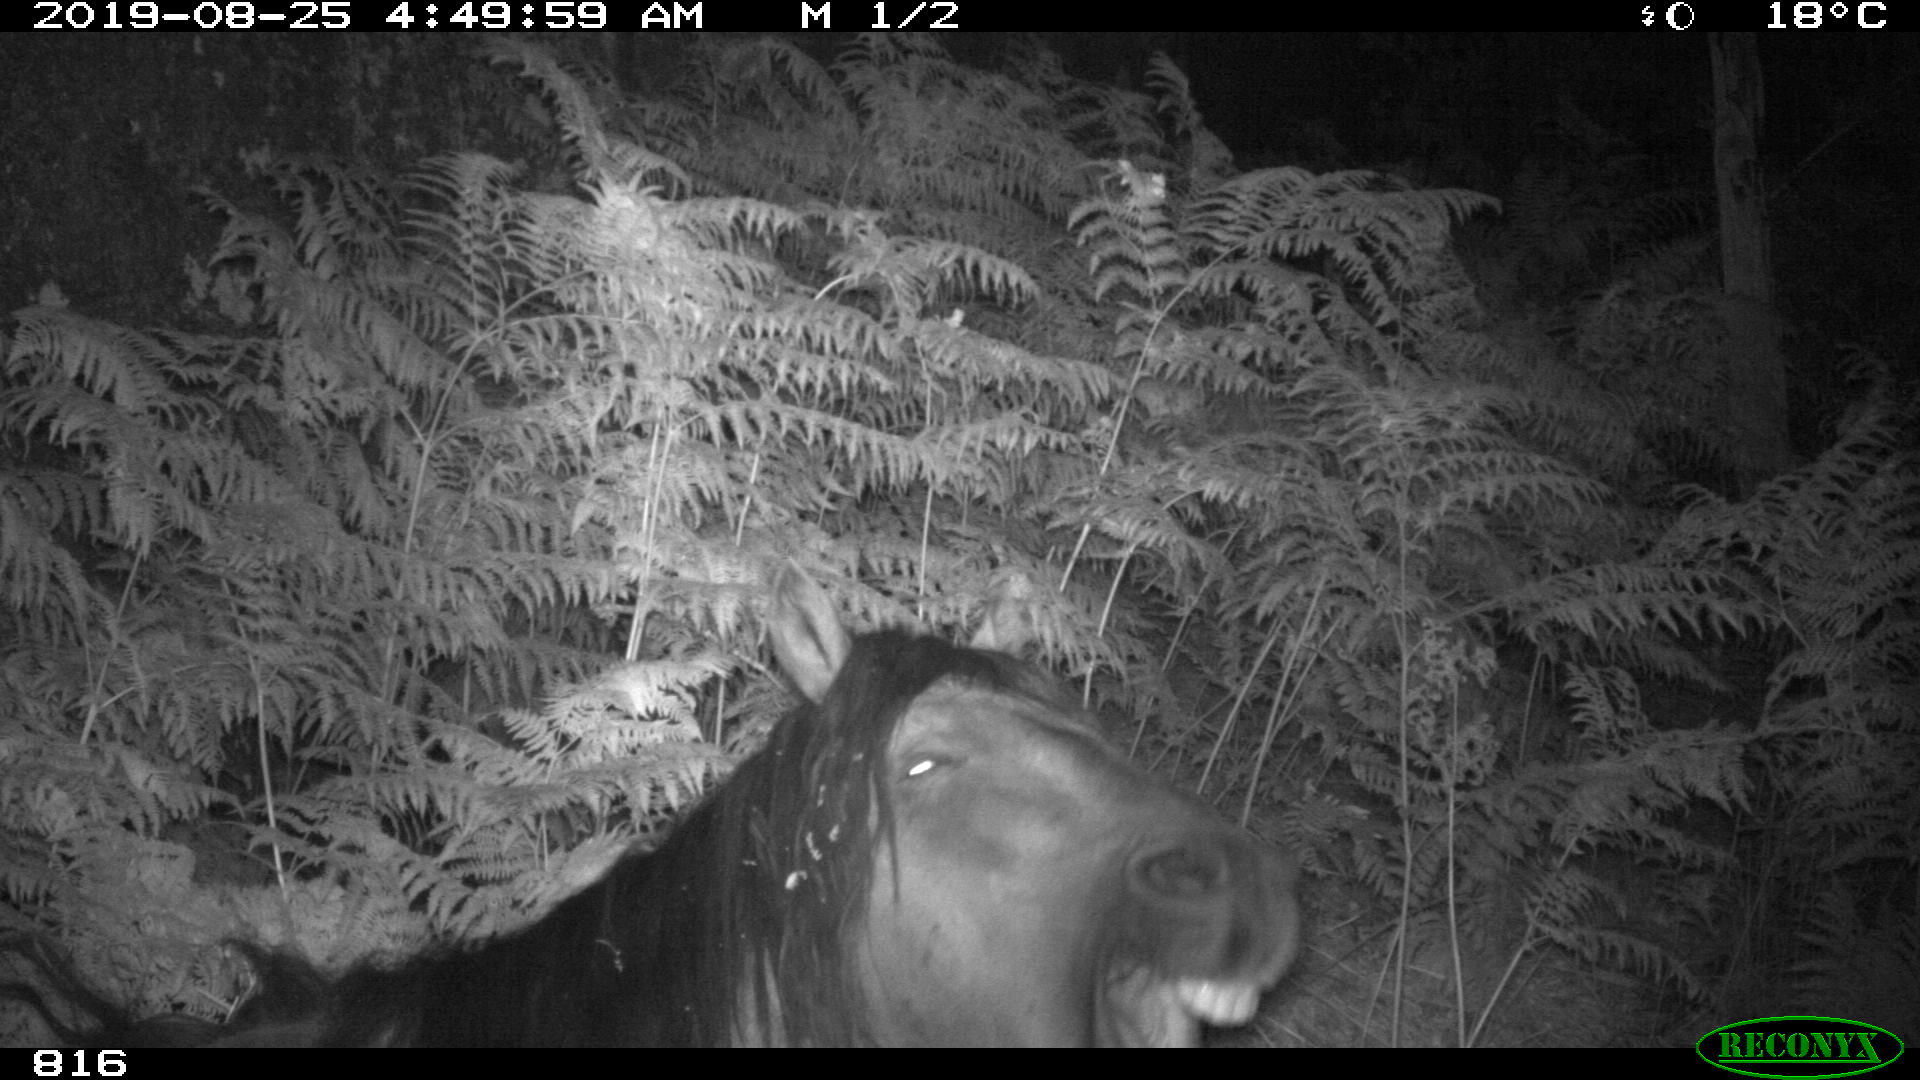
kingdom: Animalia
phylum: Chordata
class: Mammalia
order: Perissodactyla
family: Equidae
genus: Equus
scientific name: Equus caballus
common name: Horse
